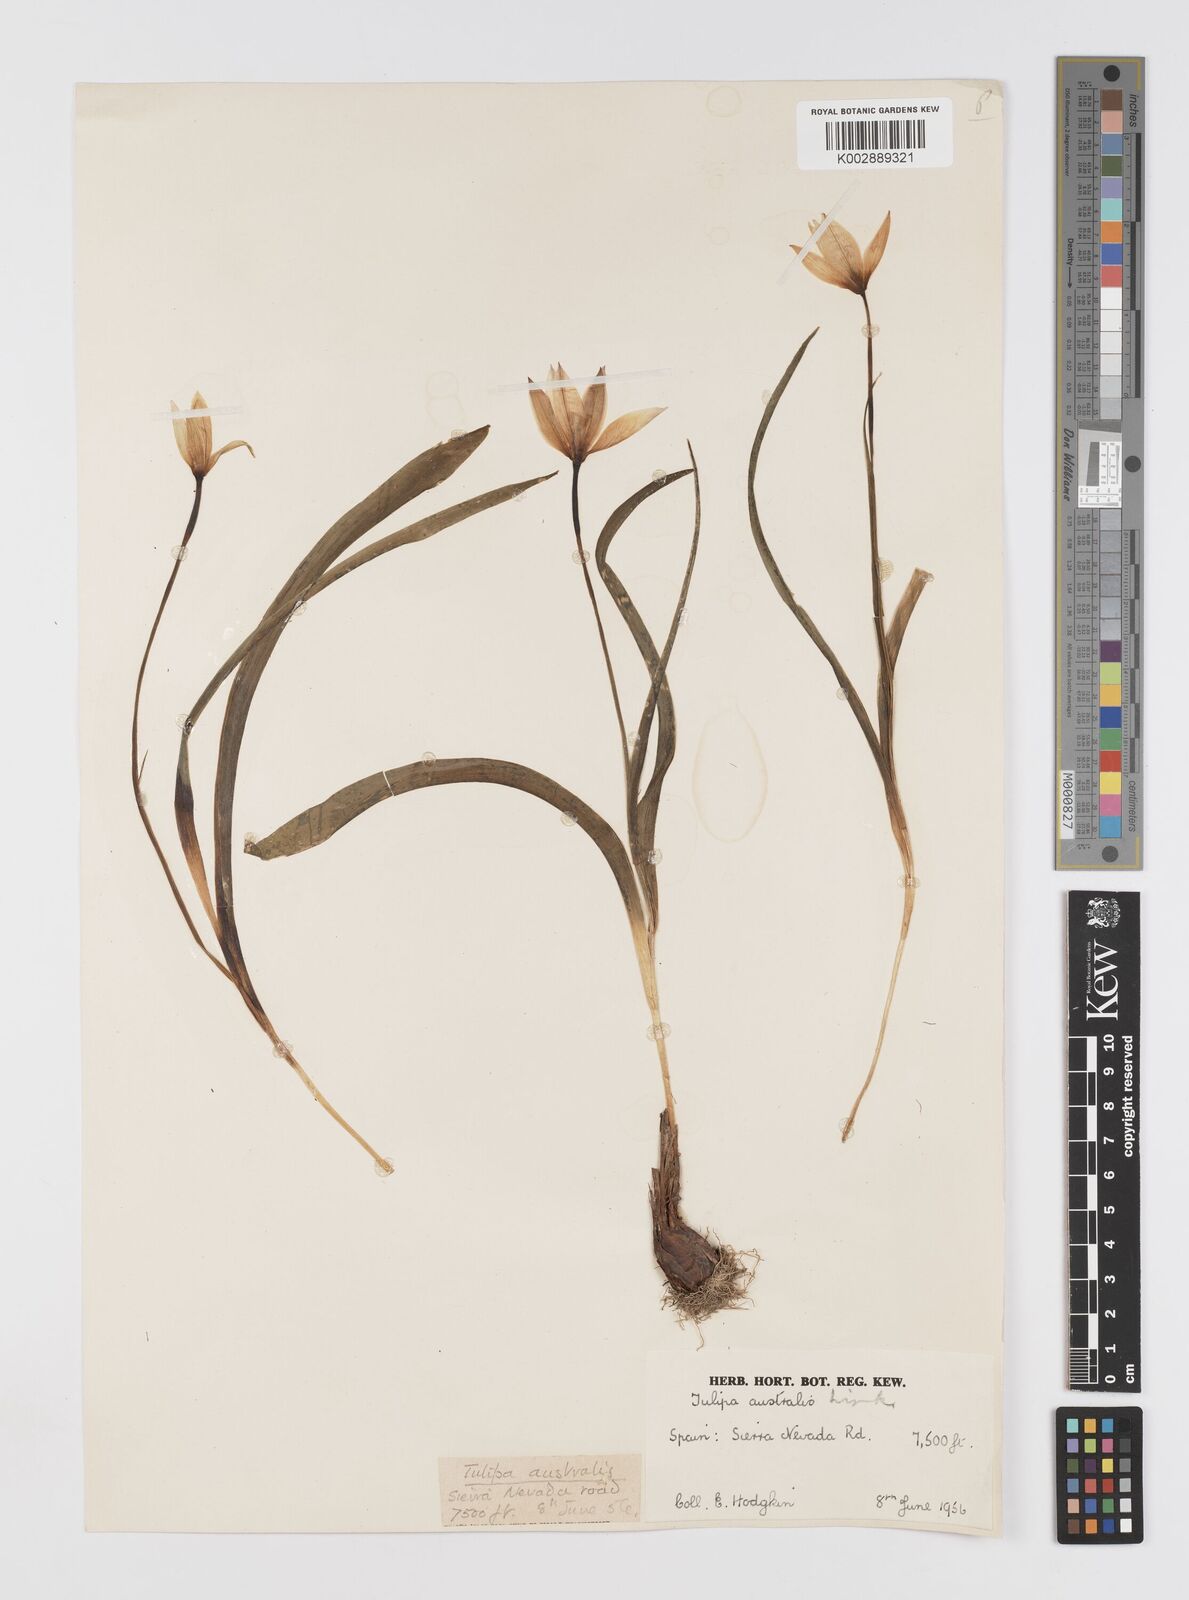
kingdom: Plantae
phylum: Tracheophyta
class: Liliopsida
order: Liliales
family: Liliaceae
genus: Tulipa
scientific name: Tulipa sylvestris
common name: Wild tulip
